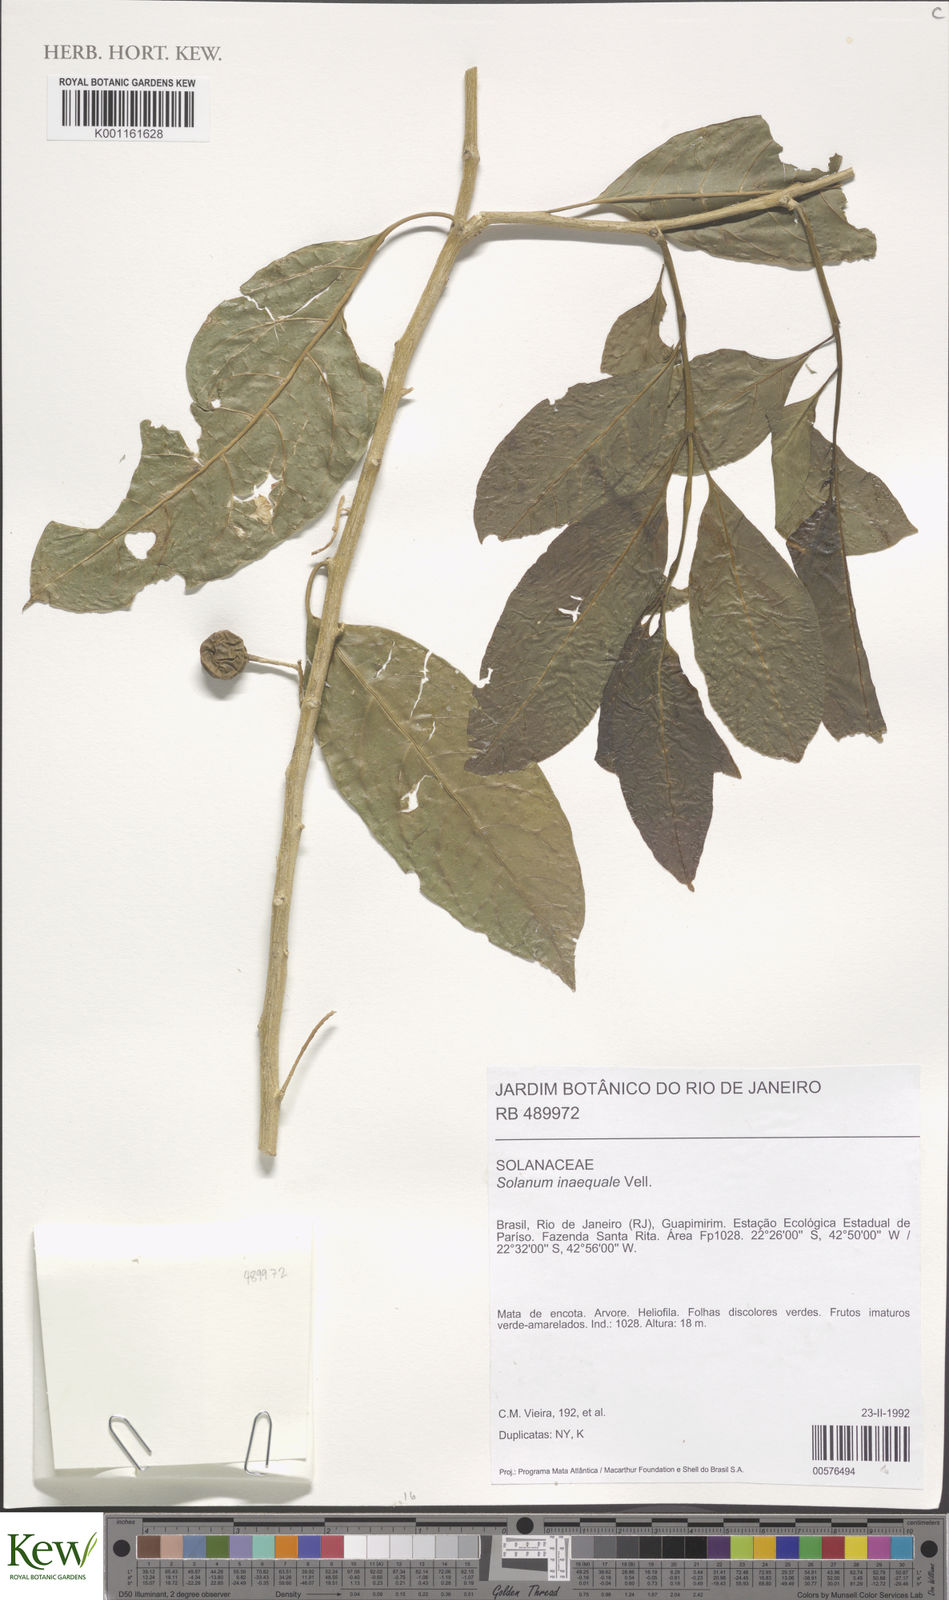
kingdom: Plantae
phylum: Tracheophyta
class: Magnoliopsida
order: Solanales
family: Solanaceae
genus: Solanum
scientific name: Solanum pseudoquina
